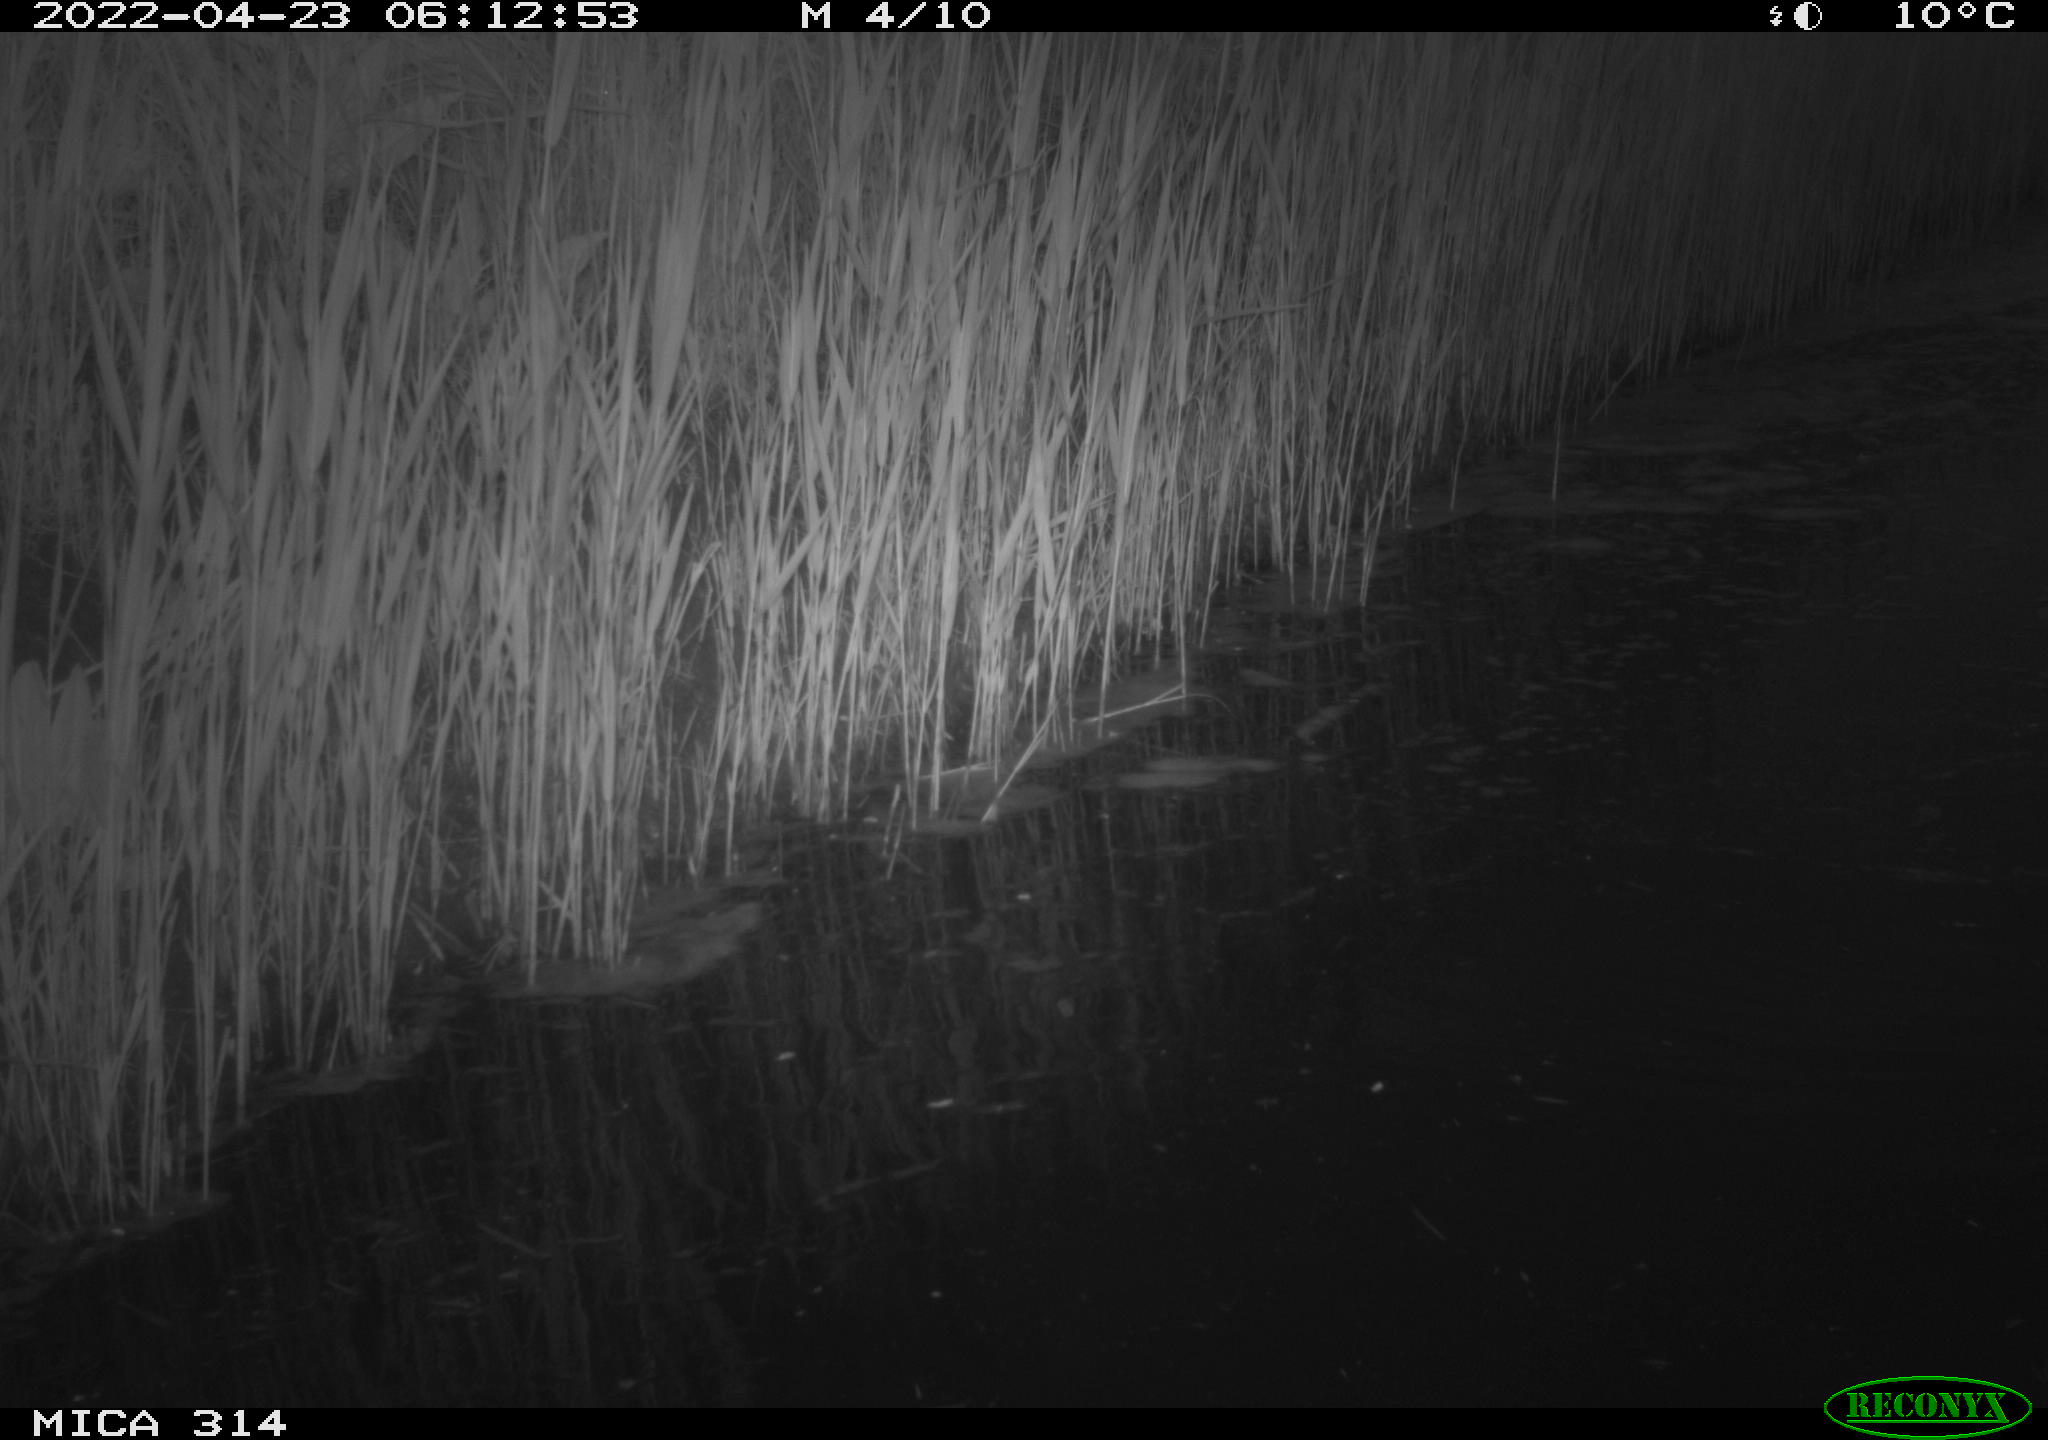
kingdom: Animalia
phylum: Chordata
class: Aves
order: Anseriformes
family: Anatidae
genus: Anas
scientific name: Anas platyrhynchos
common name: Mallard
